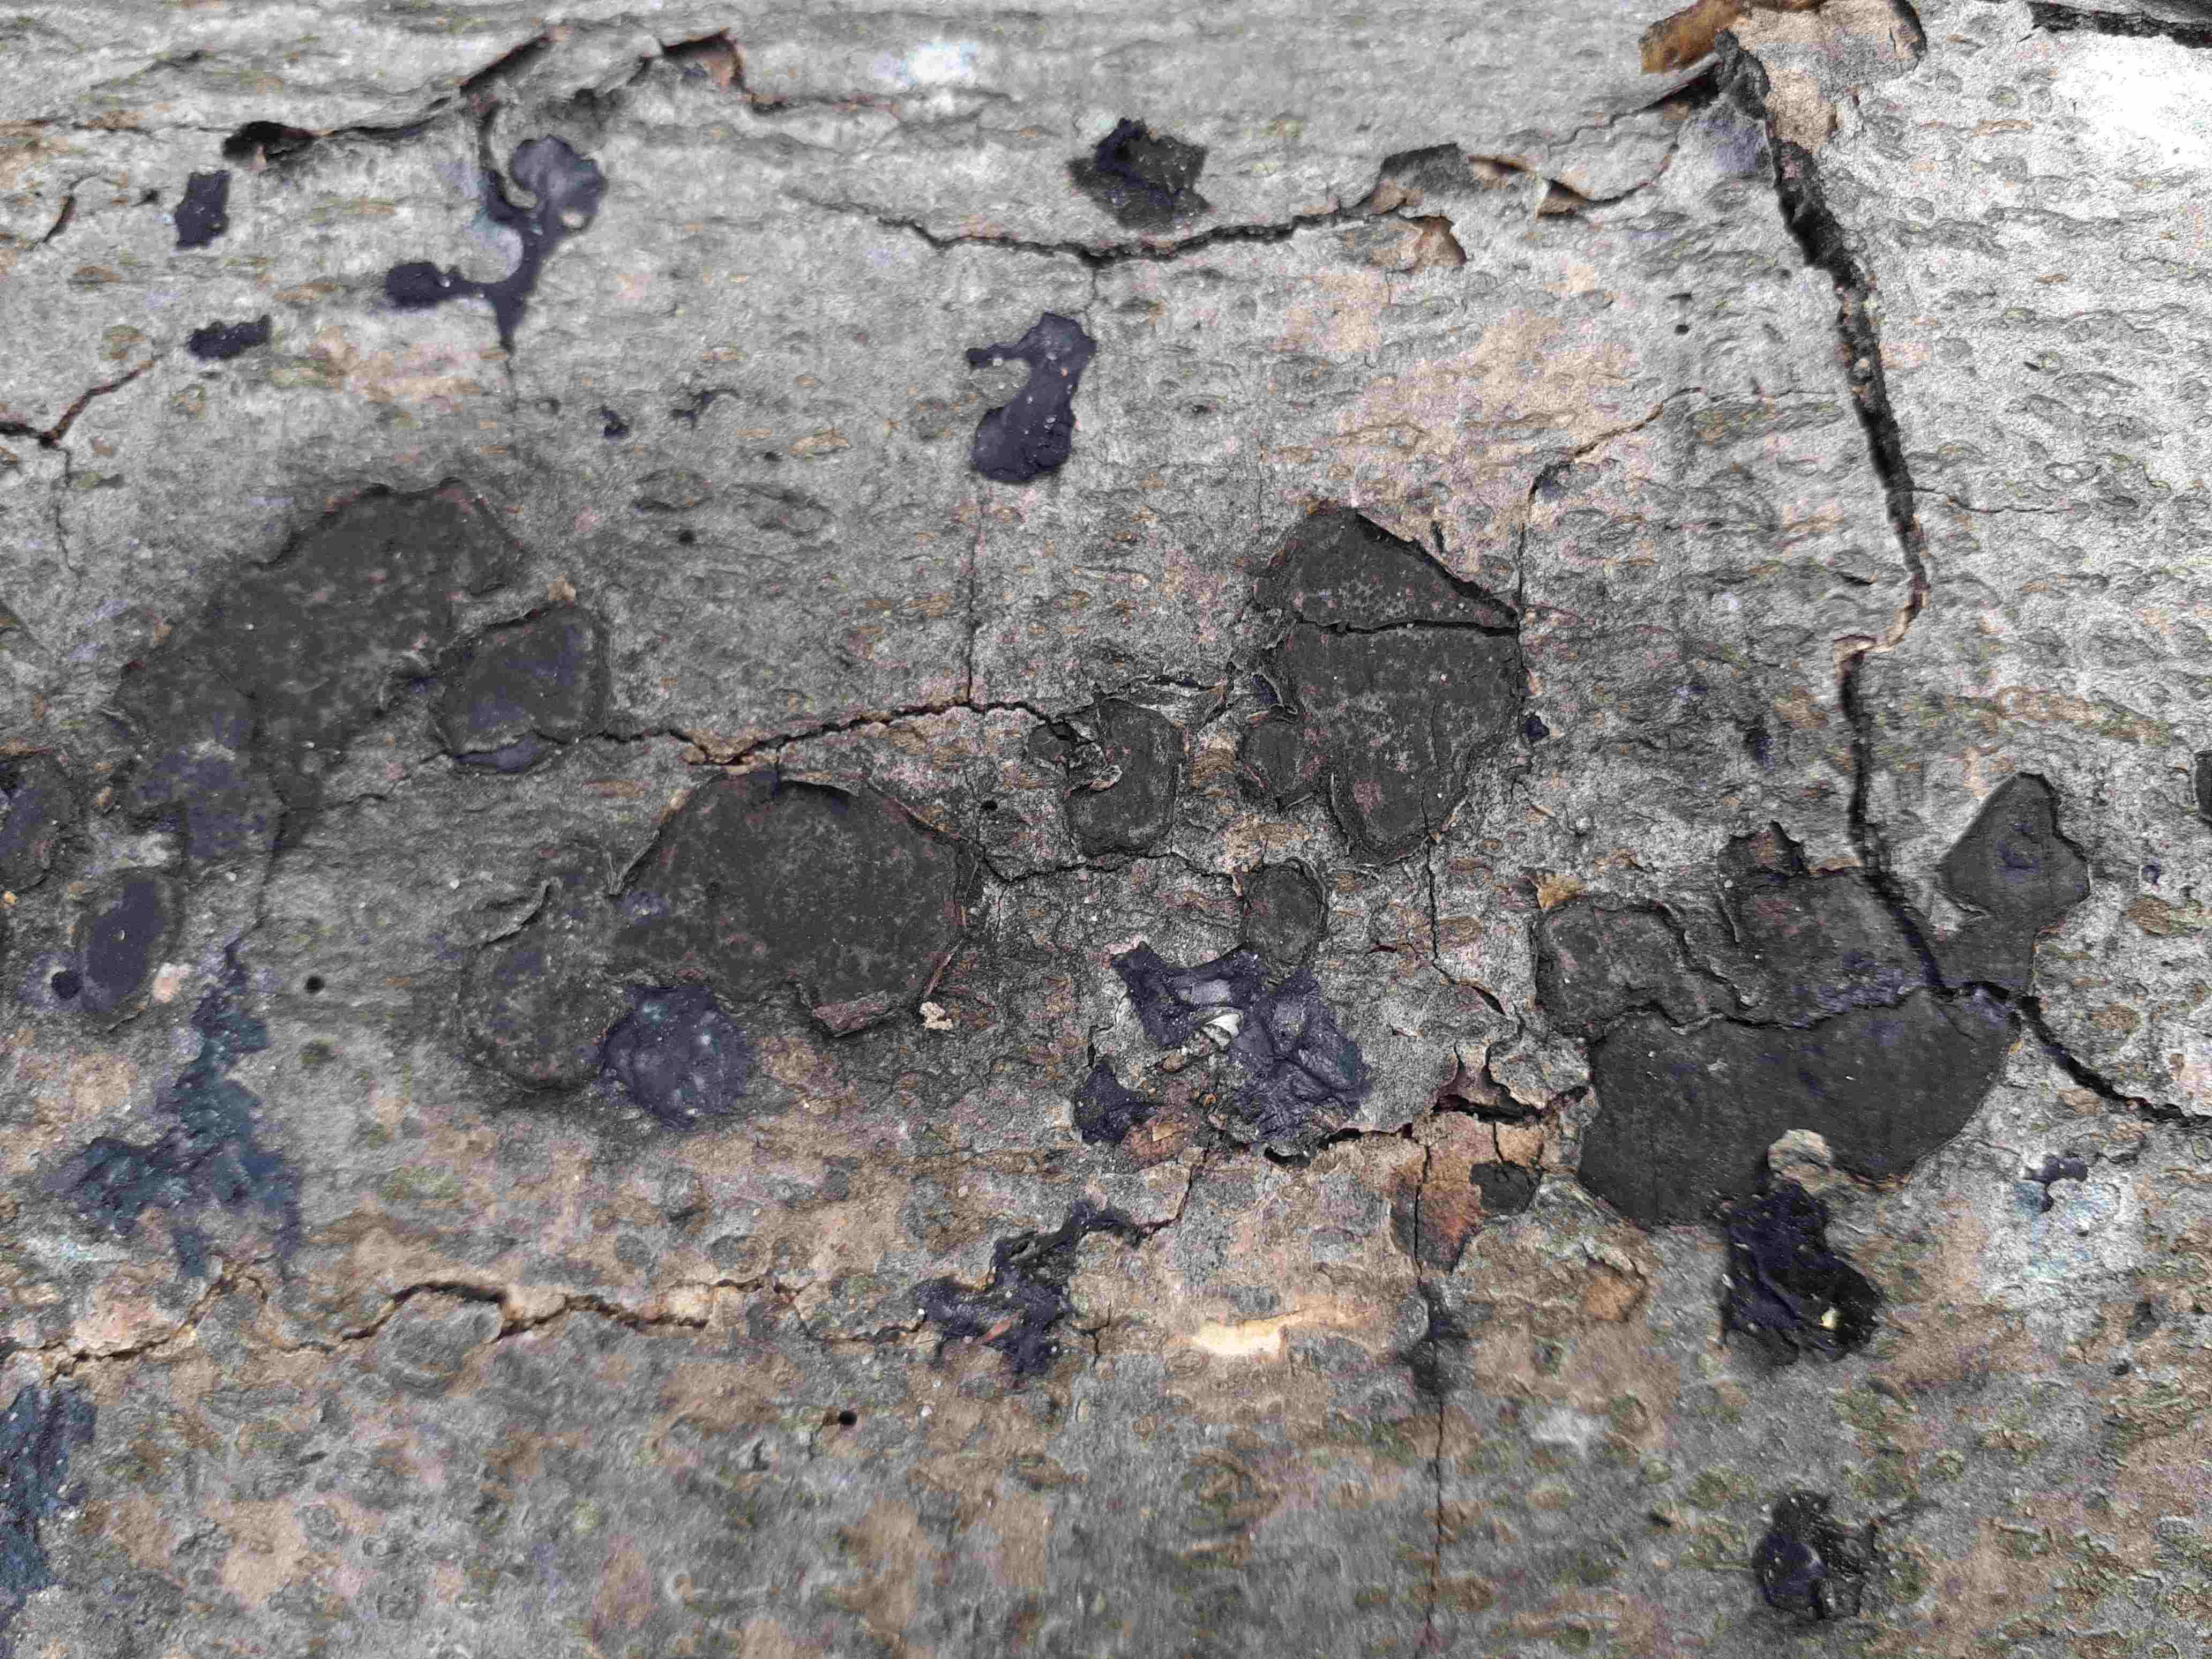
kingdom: Fungi
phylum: Ascomycota
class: Sordariomycetes
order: Xylariales
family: Graphostromataceae
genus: Biscogniauxia
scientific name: Biscogniauxia nummularia
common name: bøge-kulskive
